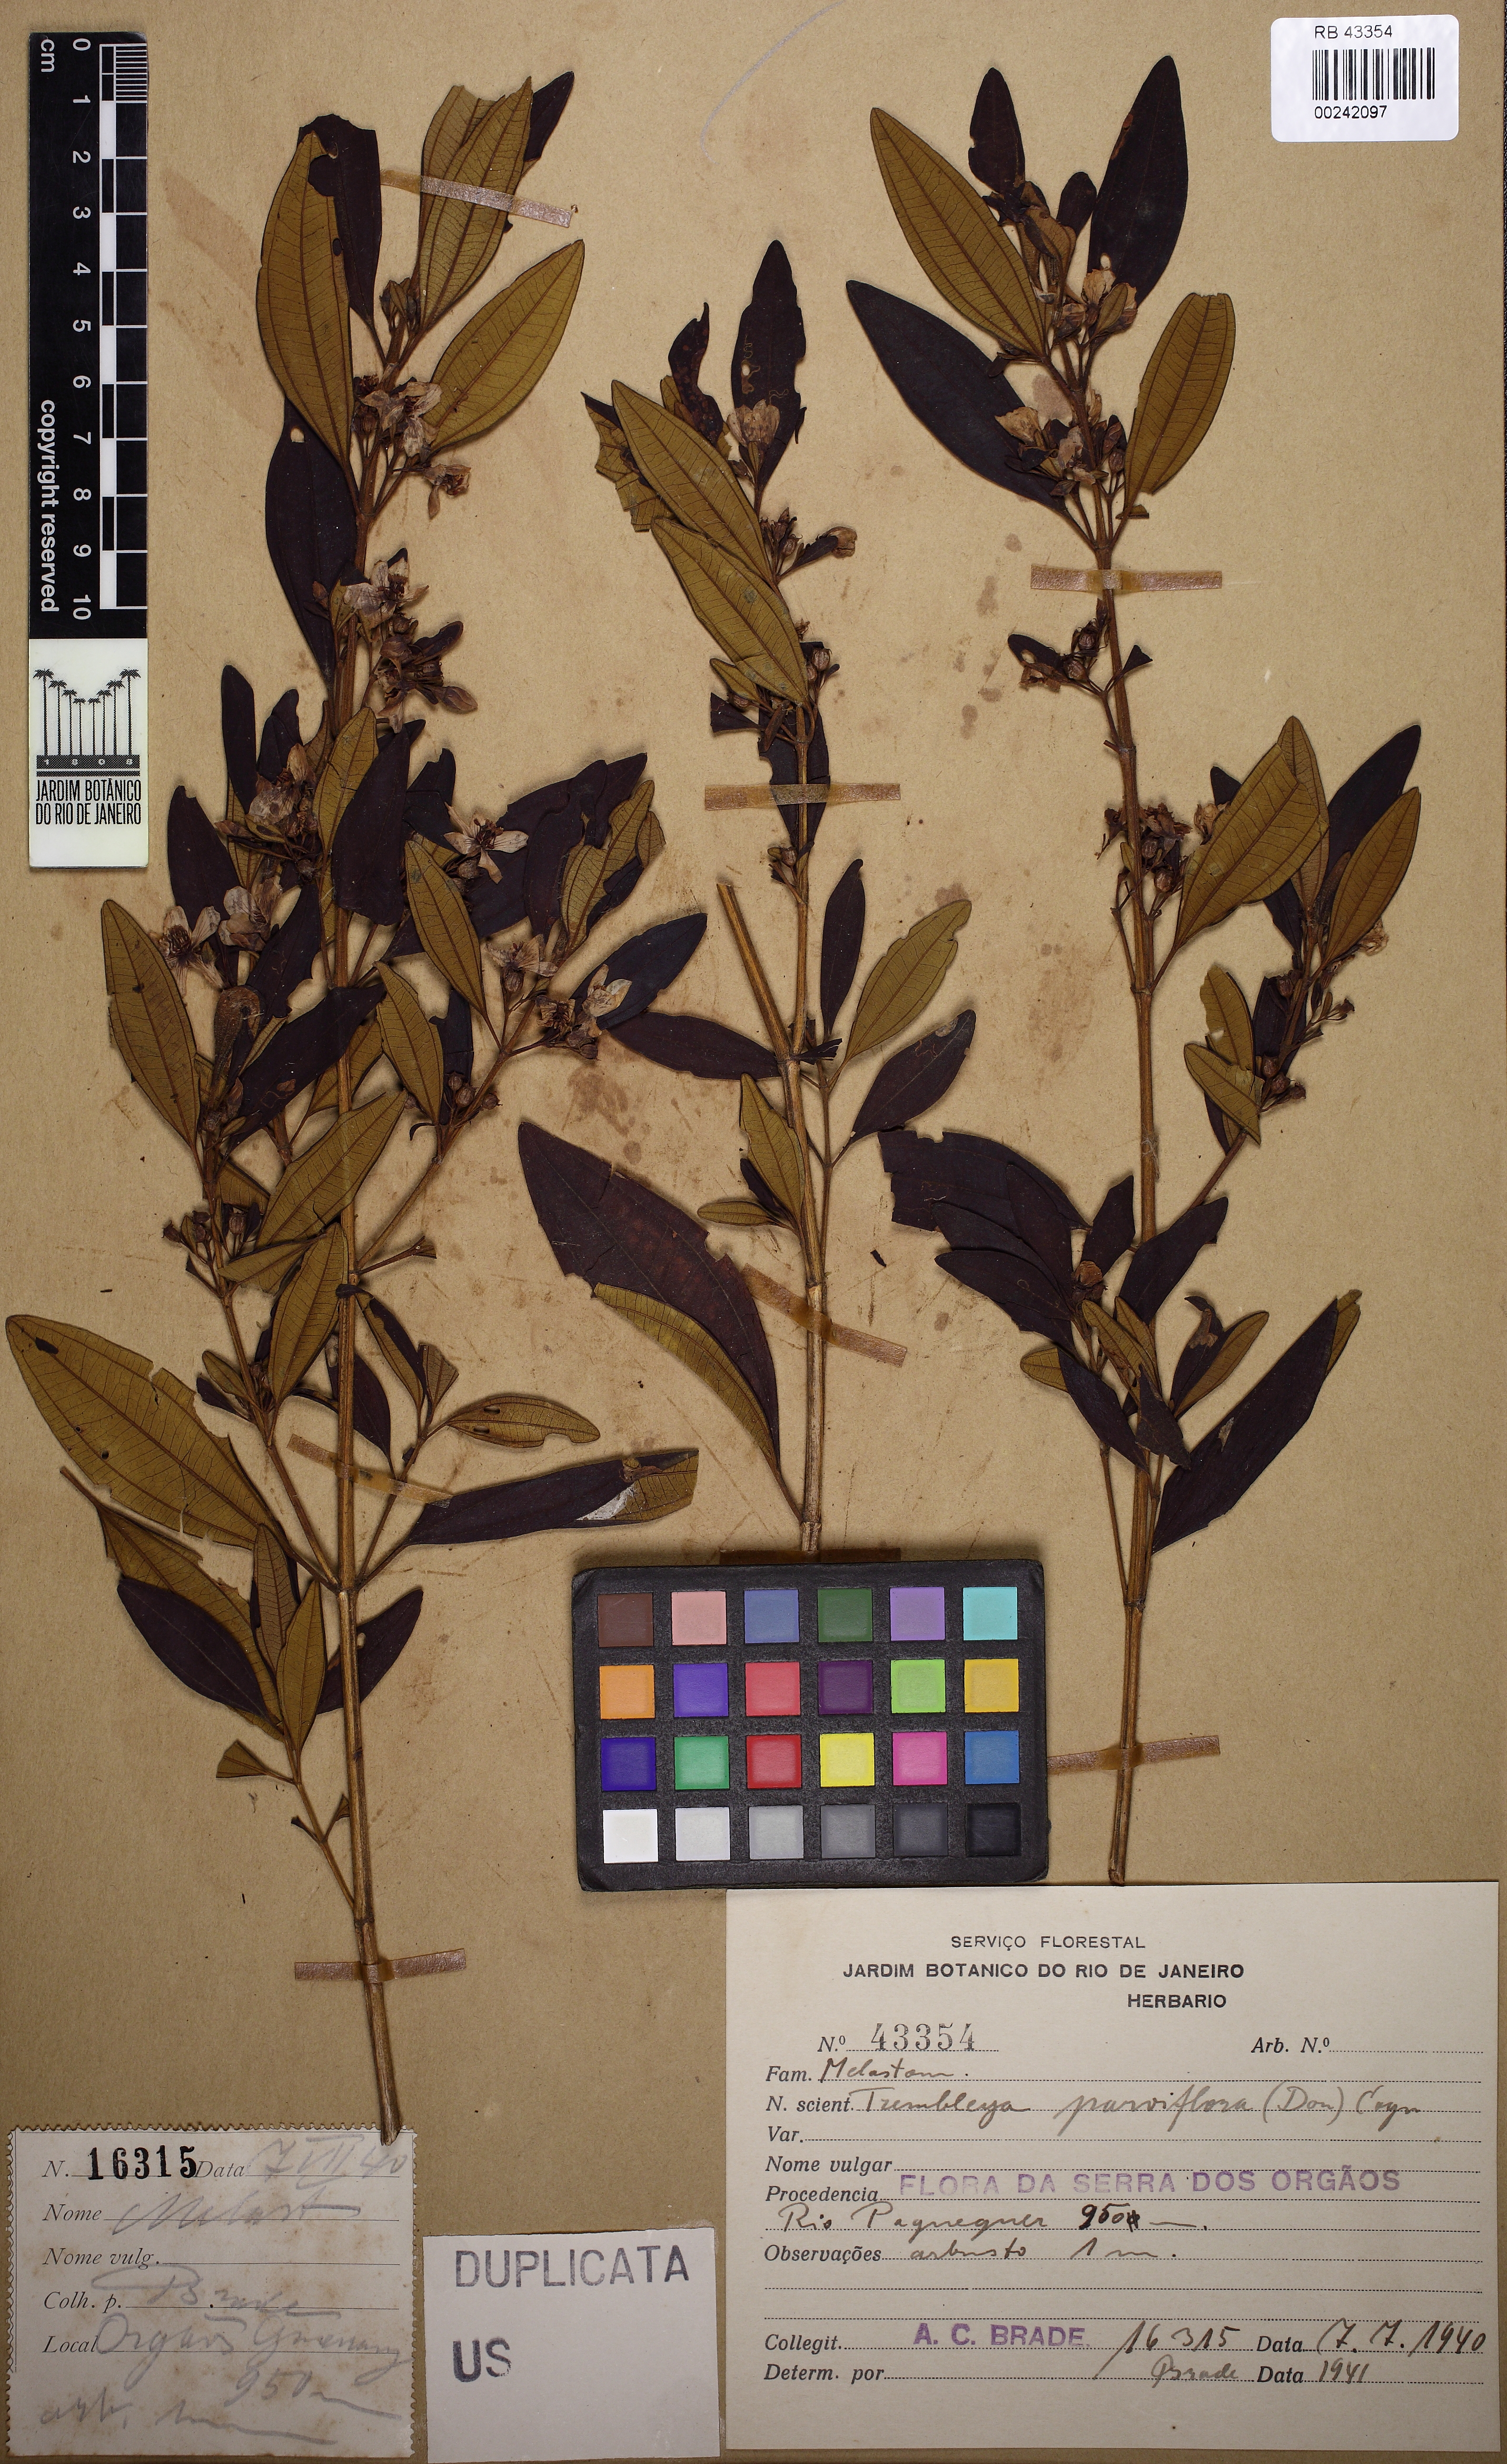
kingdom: Plantae
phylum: Tracheophyta
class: Magnoliopsida
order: Myrtales
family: Melastomataceae
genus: Microlicia
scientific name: Microlicia parviflora
